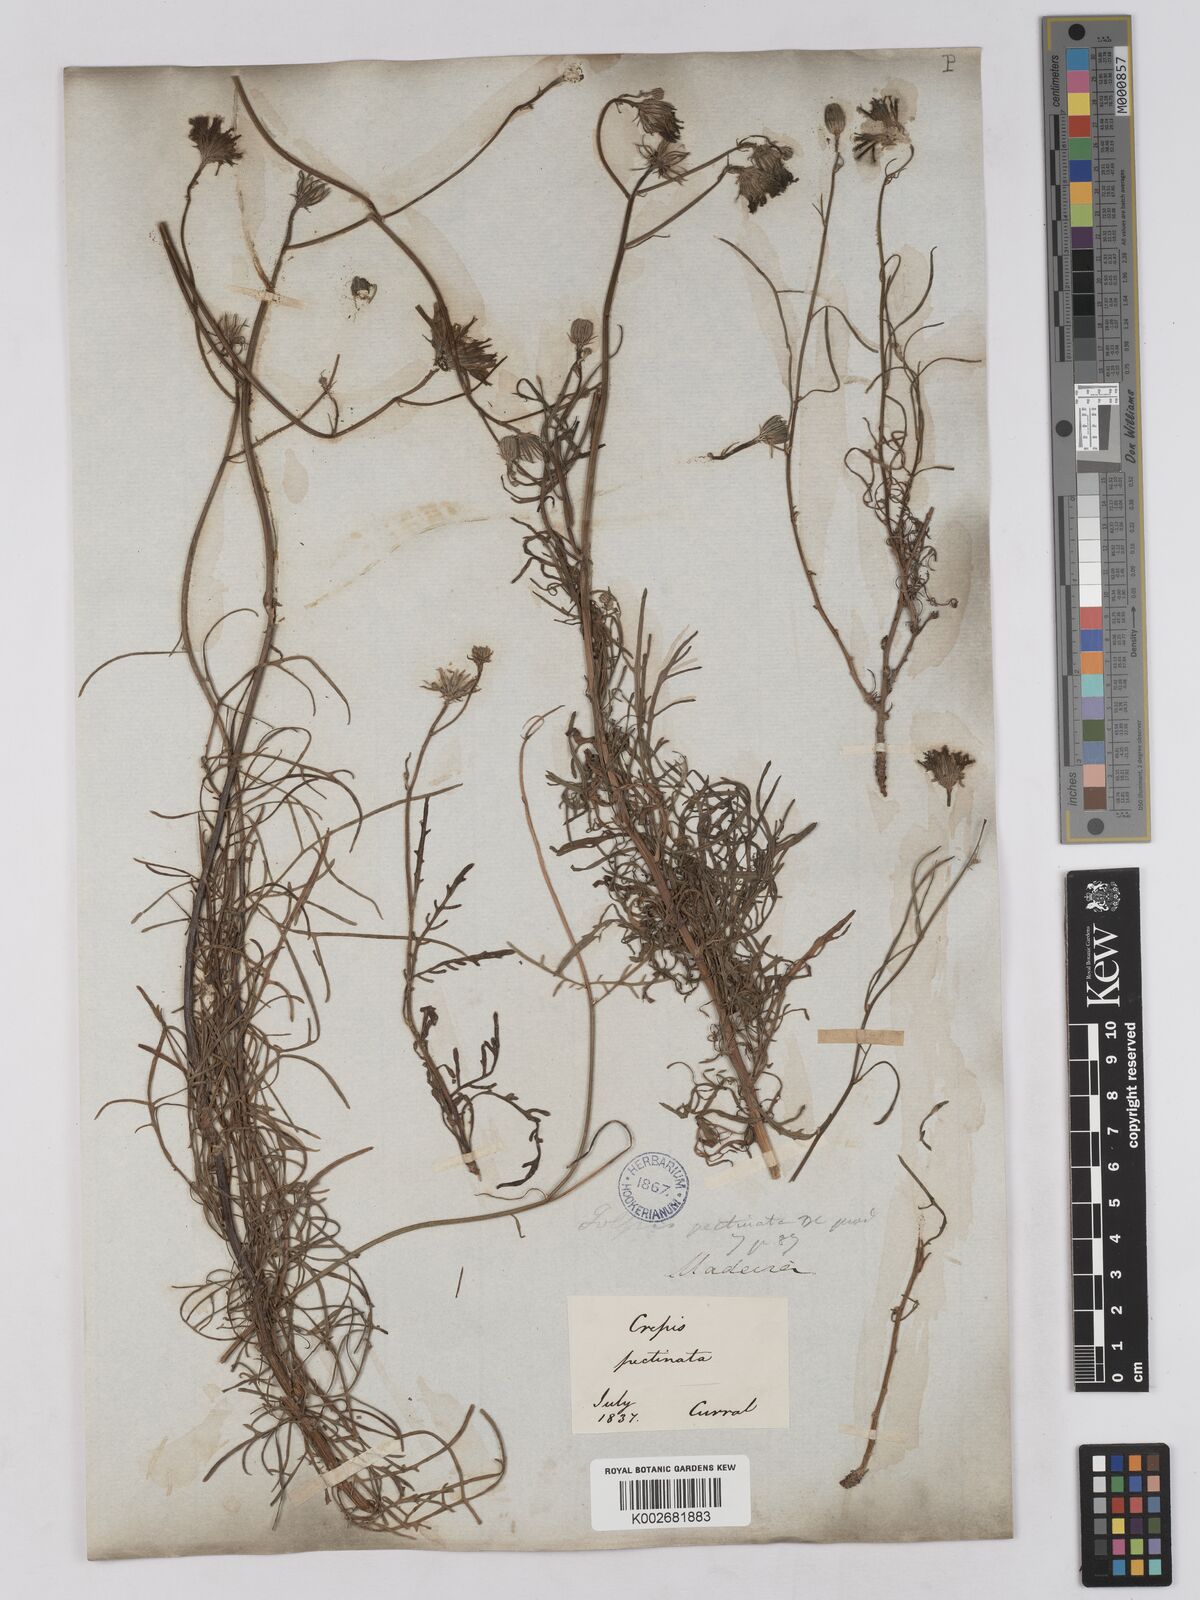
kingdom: Plantae
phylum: Tracheophyta
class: Magnoliopsida
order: Asterales
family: Asteraceae
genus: Tolpis
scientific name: Tolpis
